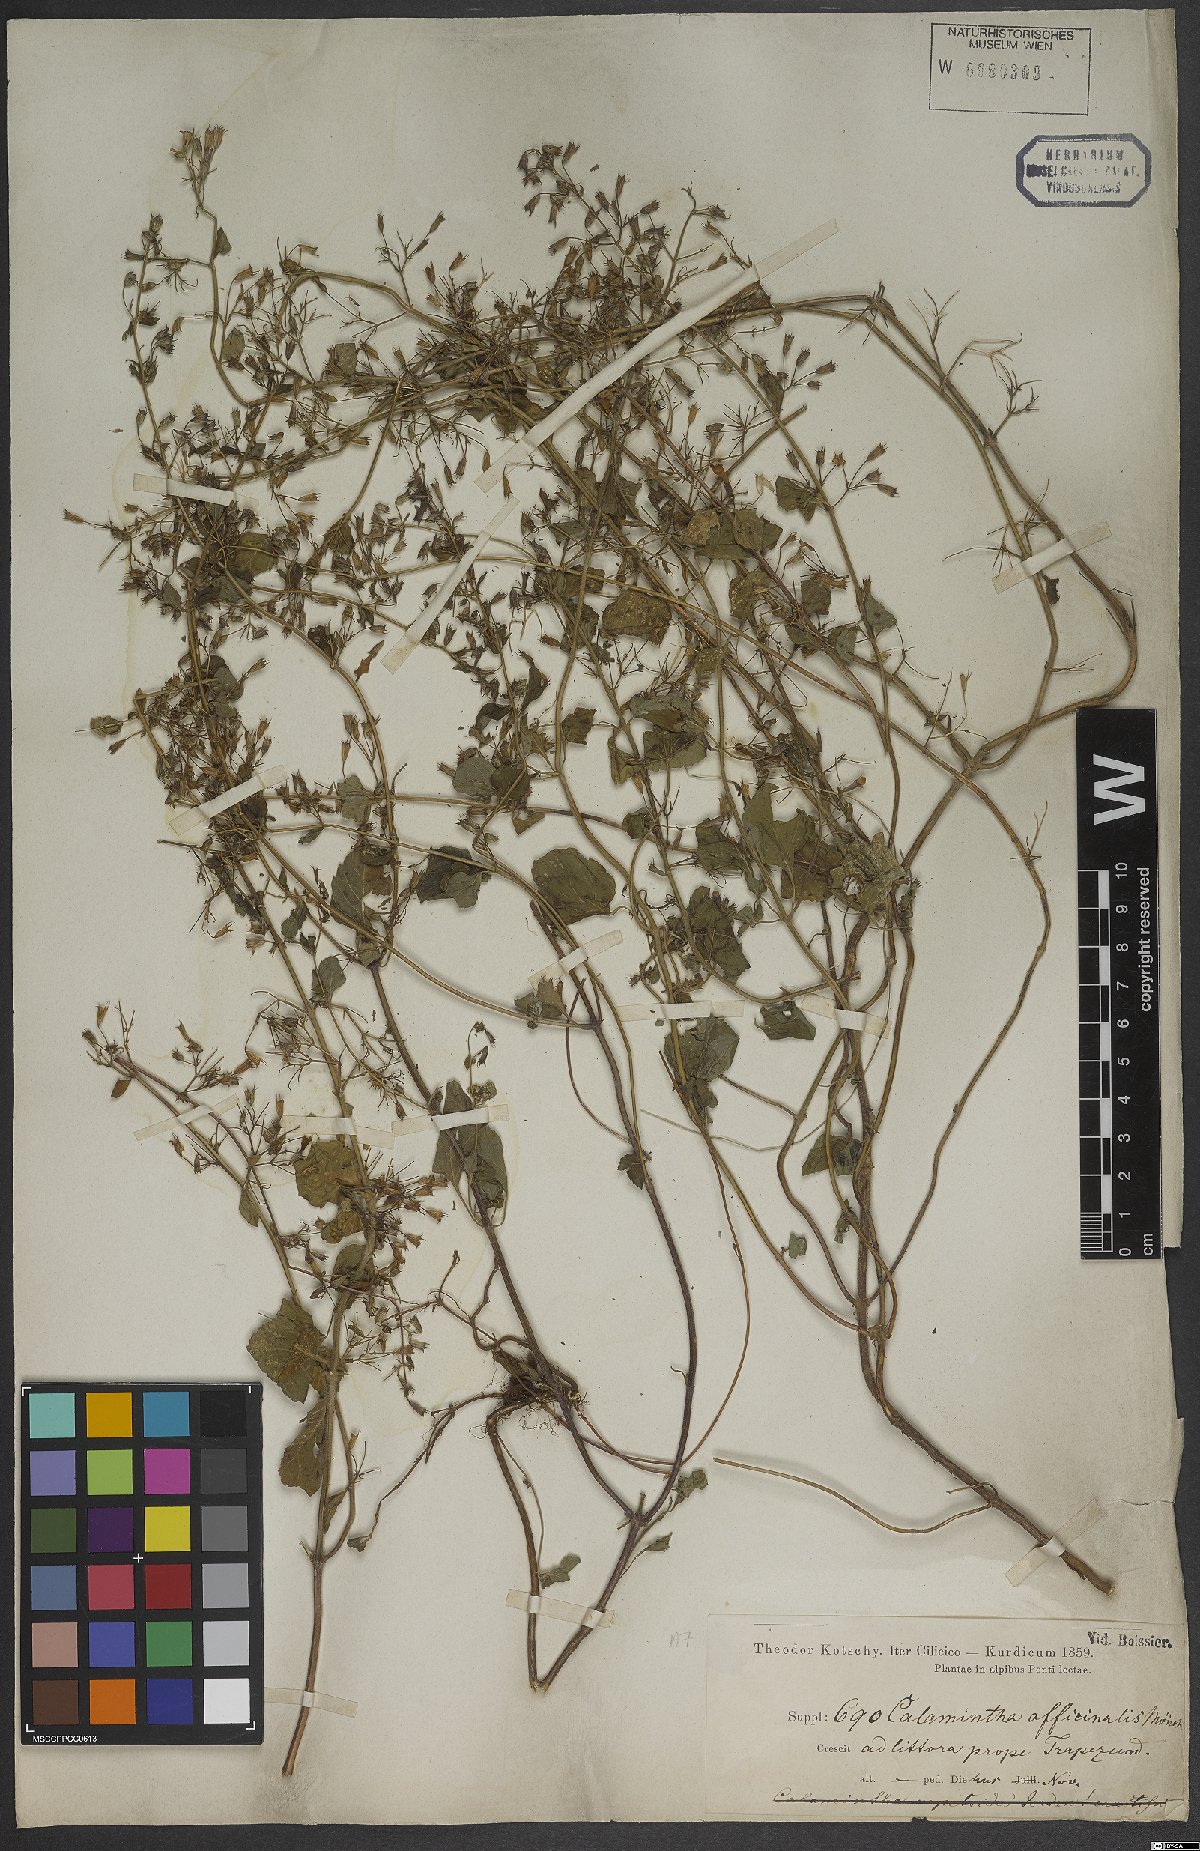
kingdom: Plantae
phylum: Tracheophyta
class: Magnoliopsida
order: Lamiales
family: Lamiaceae
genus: Clinopodium
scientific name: Clinopodium nepeta
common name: Lesser calamint
